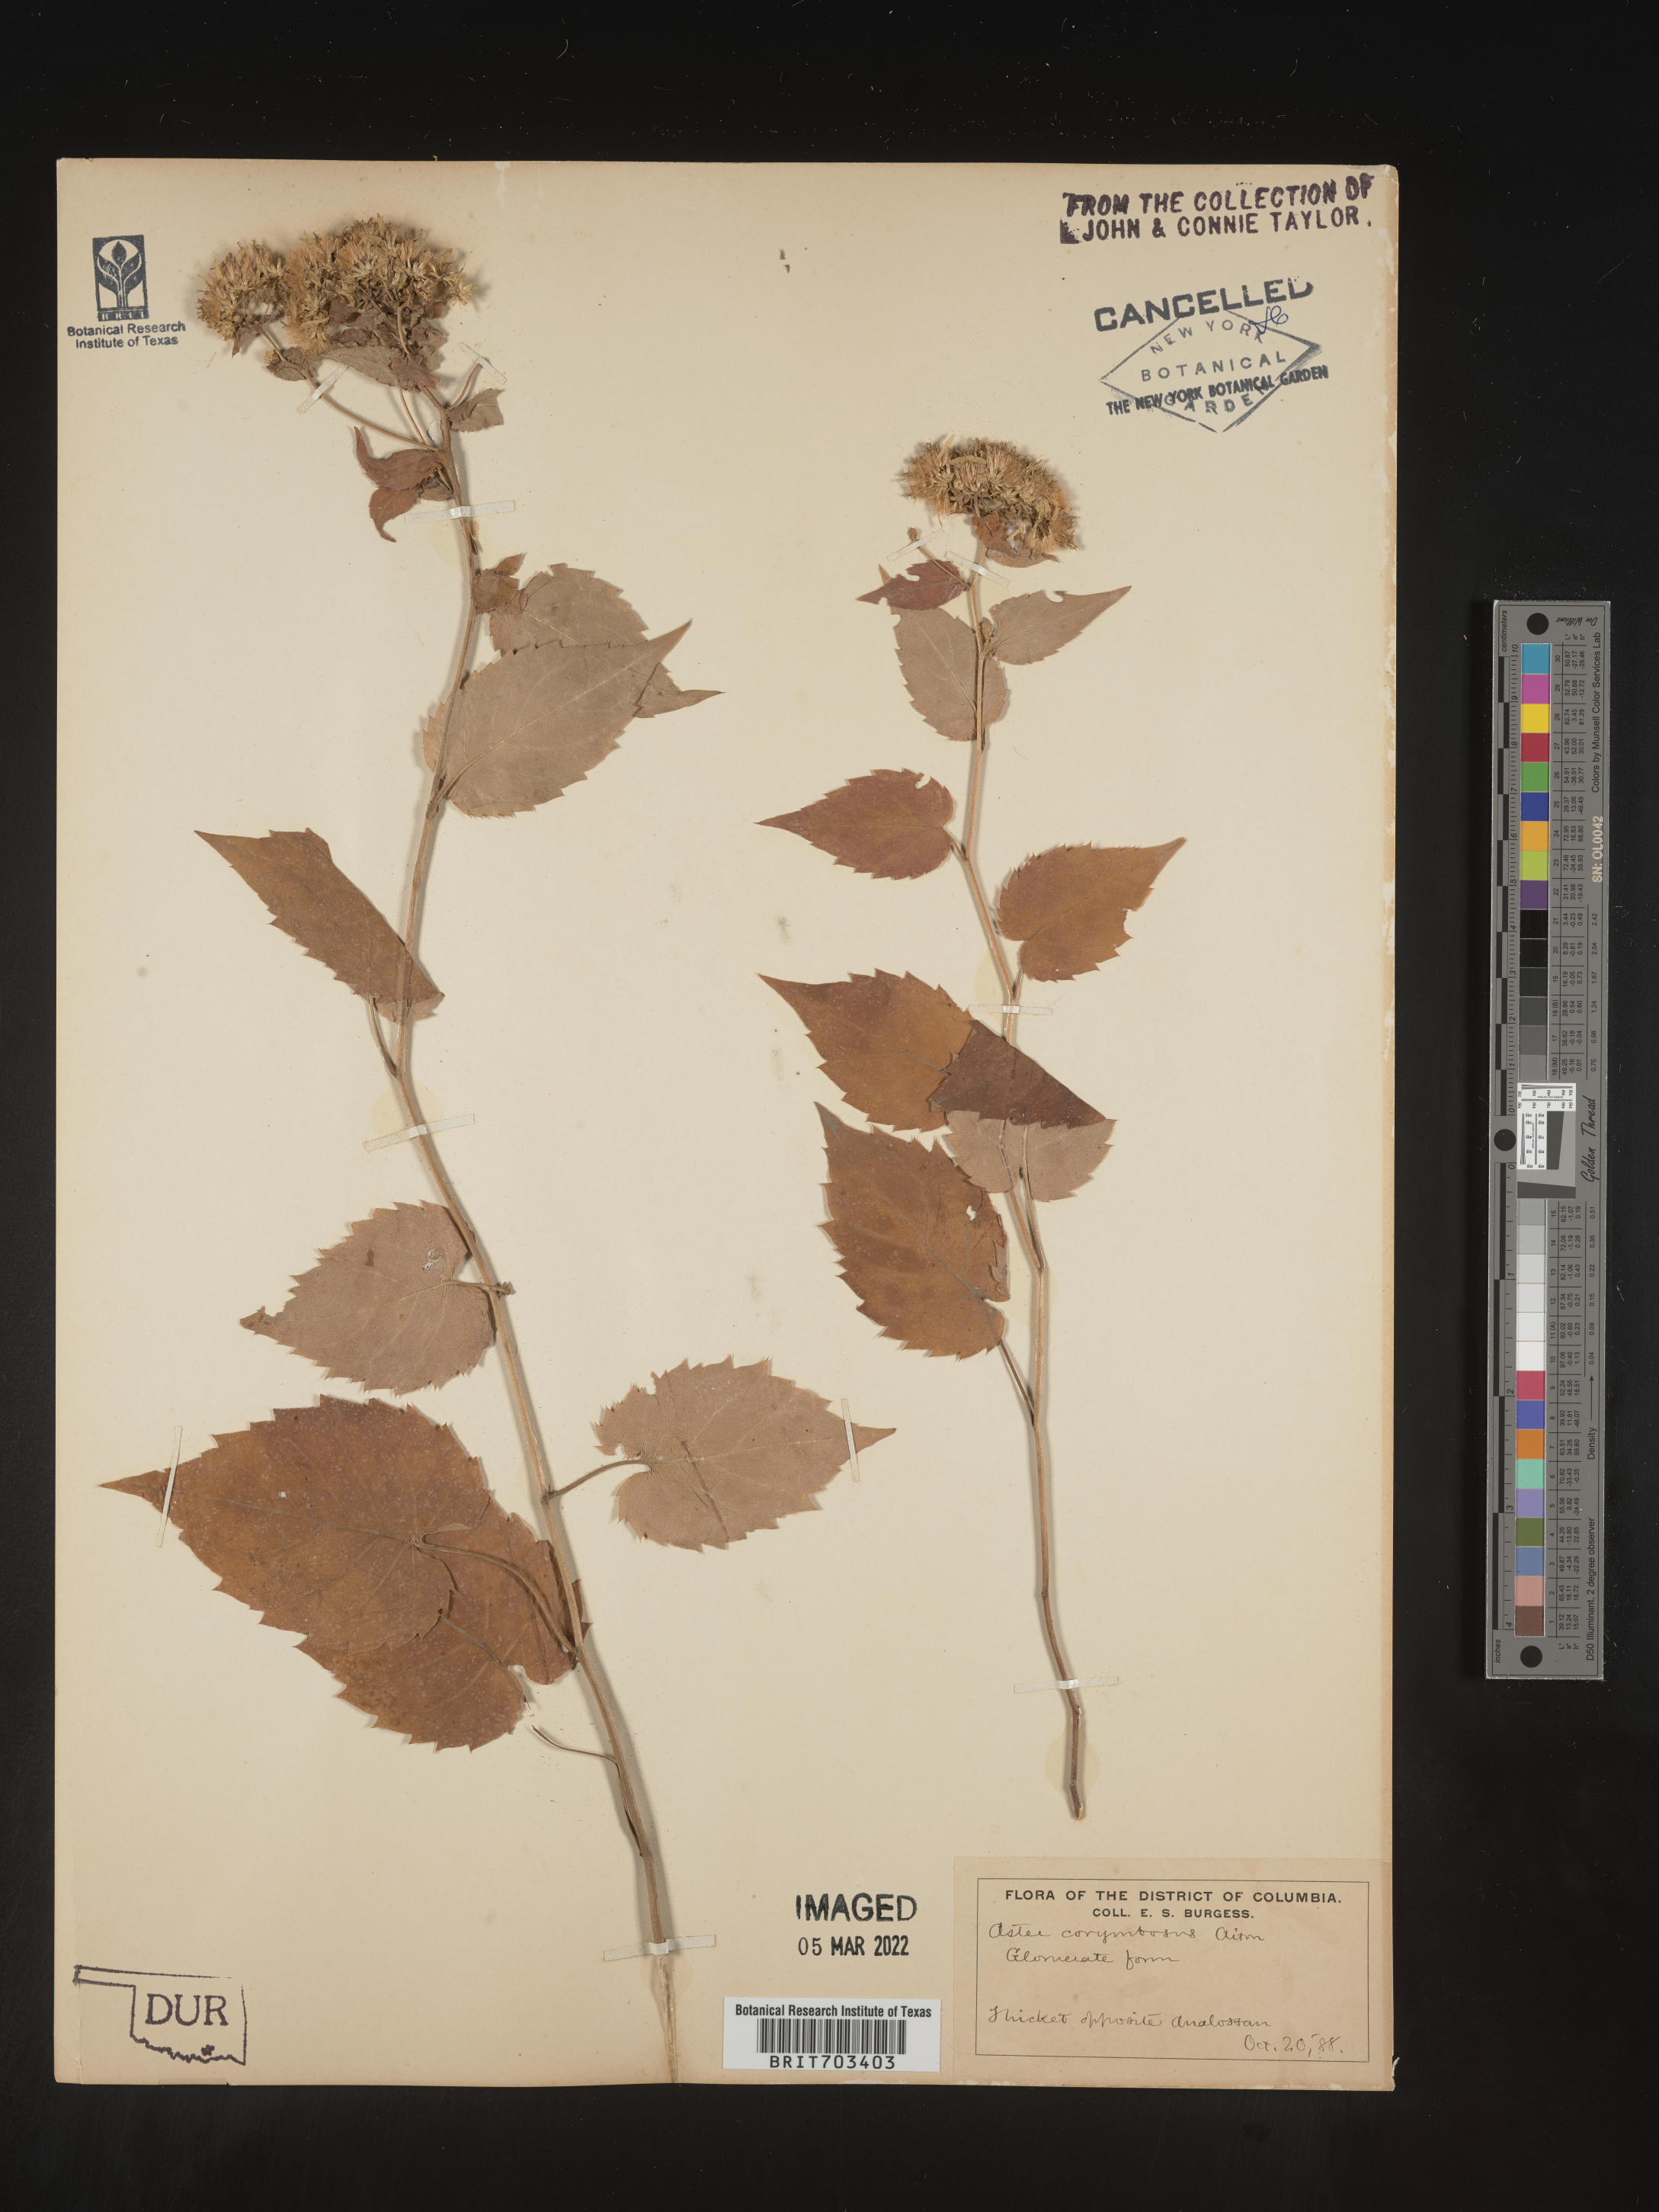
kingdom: Plantae
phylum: Tracheophyta
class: Magnoliopsida
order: Asterales
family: Asteraceae
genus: Eurybia
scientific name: Eurybia divaricata
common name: White wood aster
